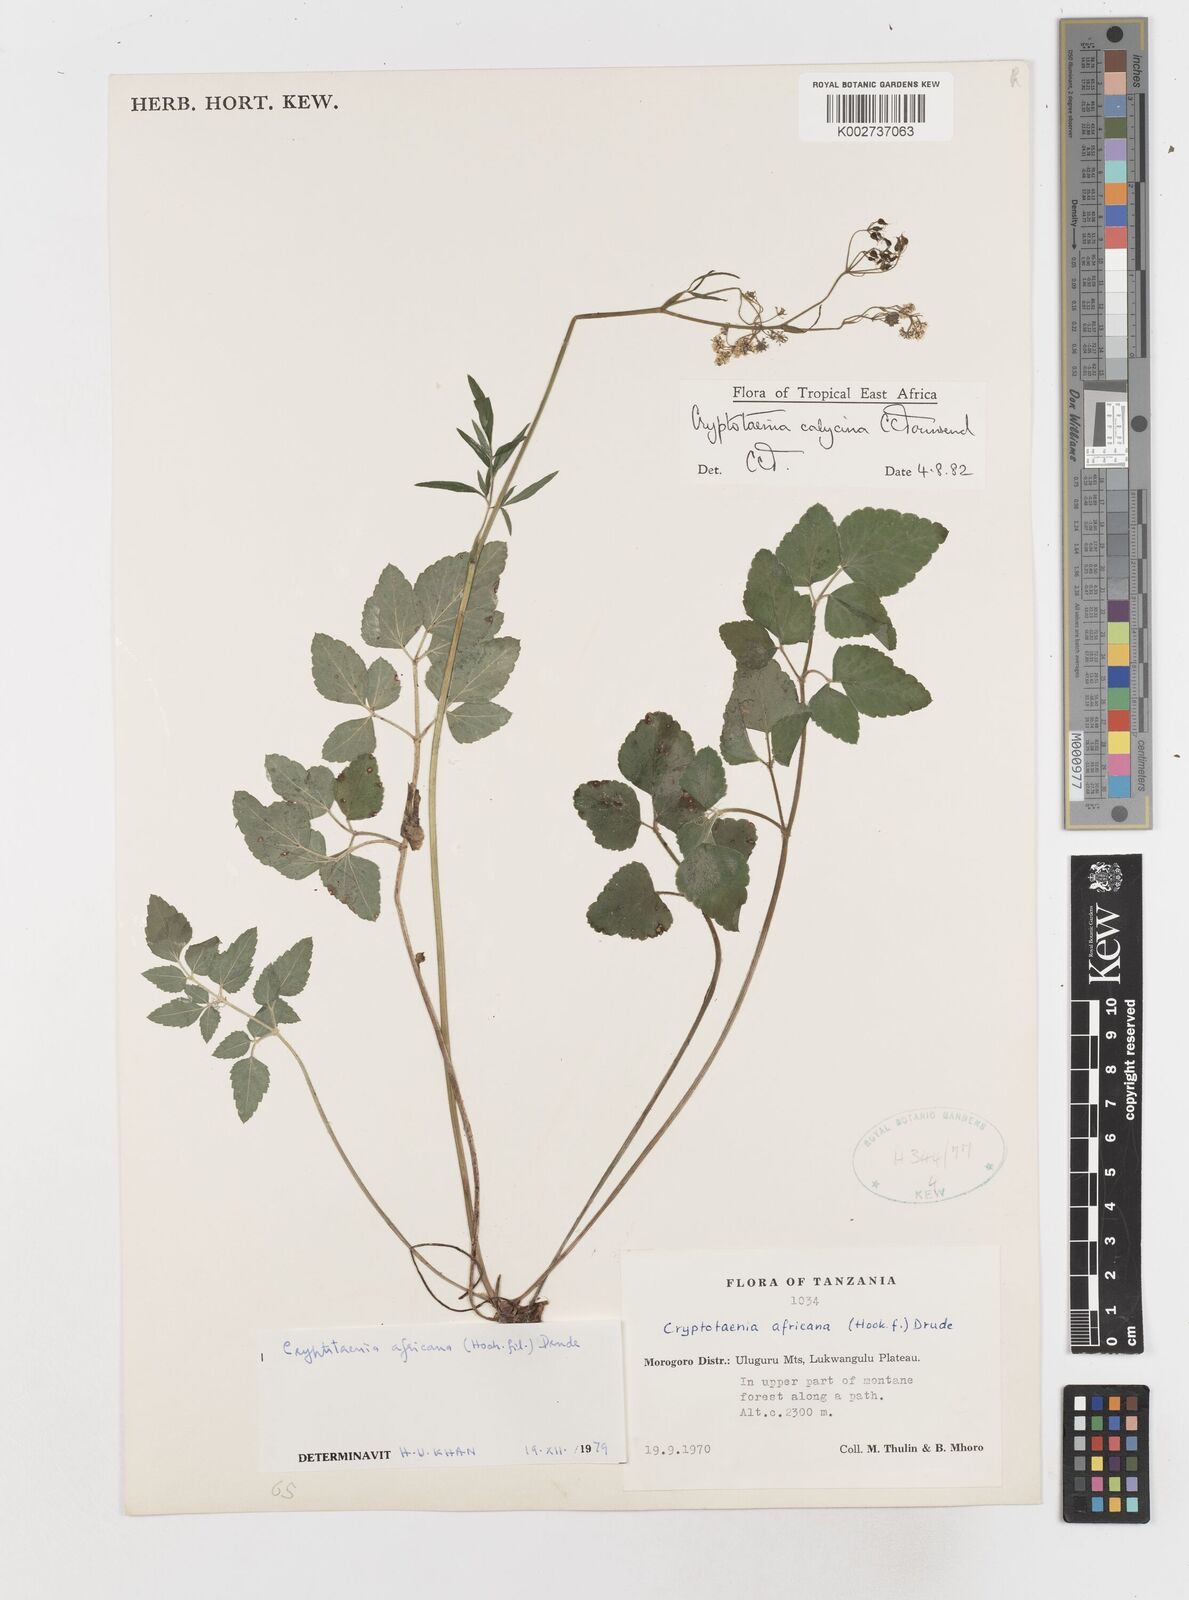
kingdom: Plantae
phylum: Tracheophyta
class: Magnoliopsida
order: Apiales
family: Apiaceae
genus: Cryptotaenia
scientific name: Cryptotaenia calycina
